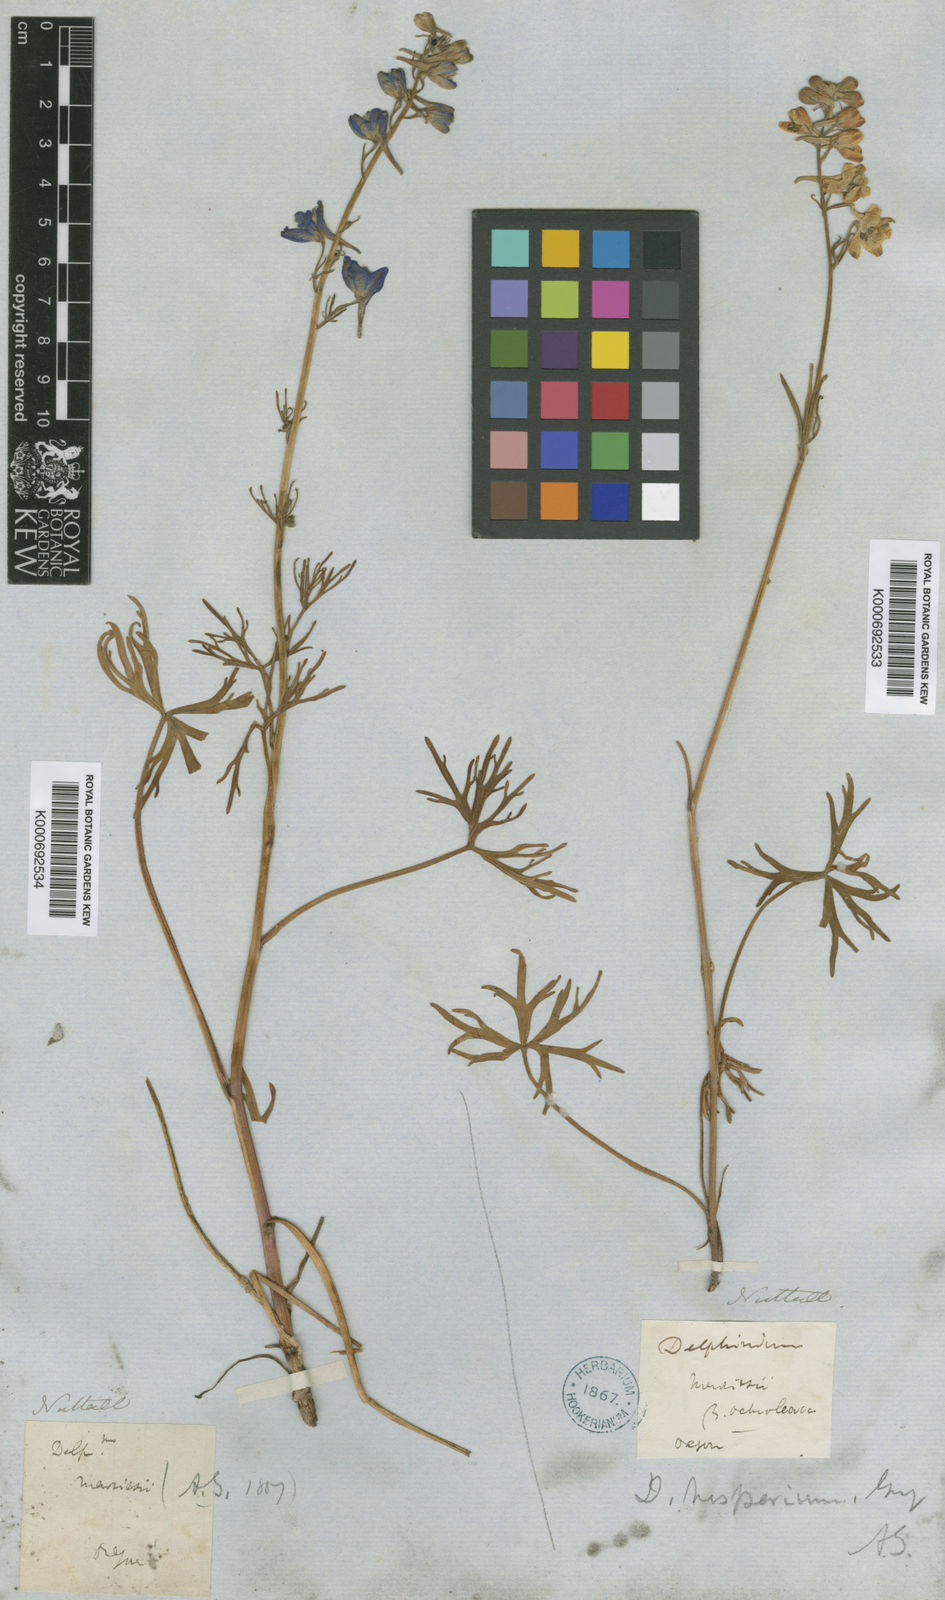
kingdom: Plantae
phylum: Tracheophyta
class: Magnoliopsida
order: Ranunculales
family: Ranunculaceae
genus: Delphinium
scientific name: Delphinium hesperium
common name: Western larkspur
